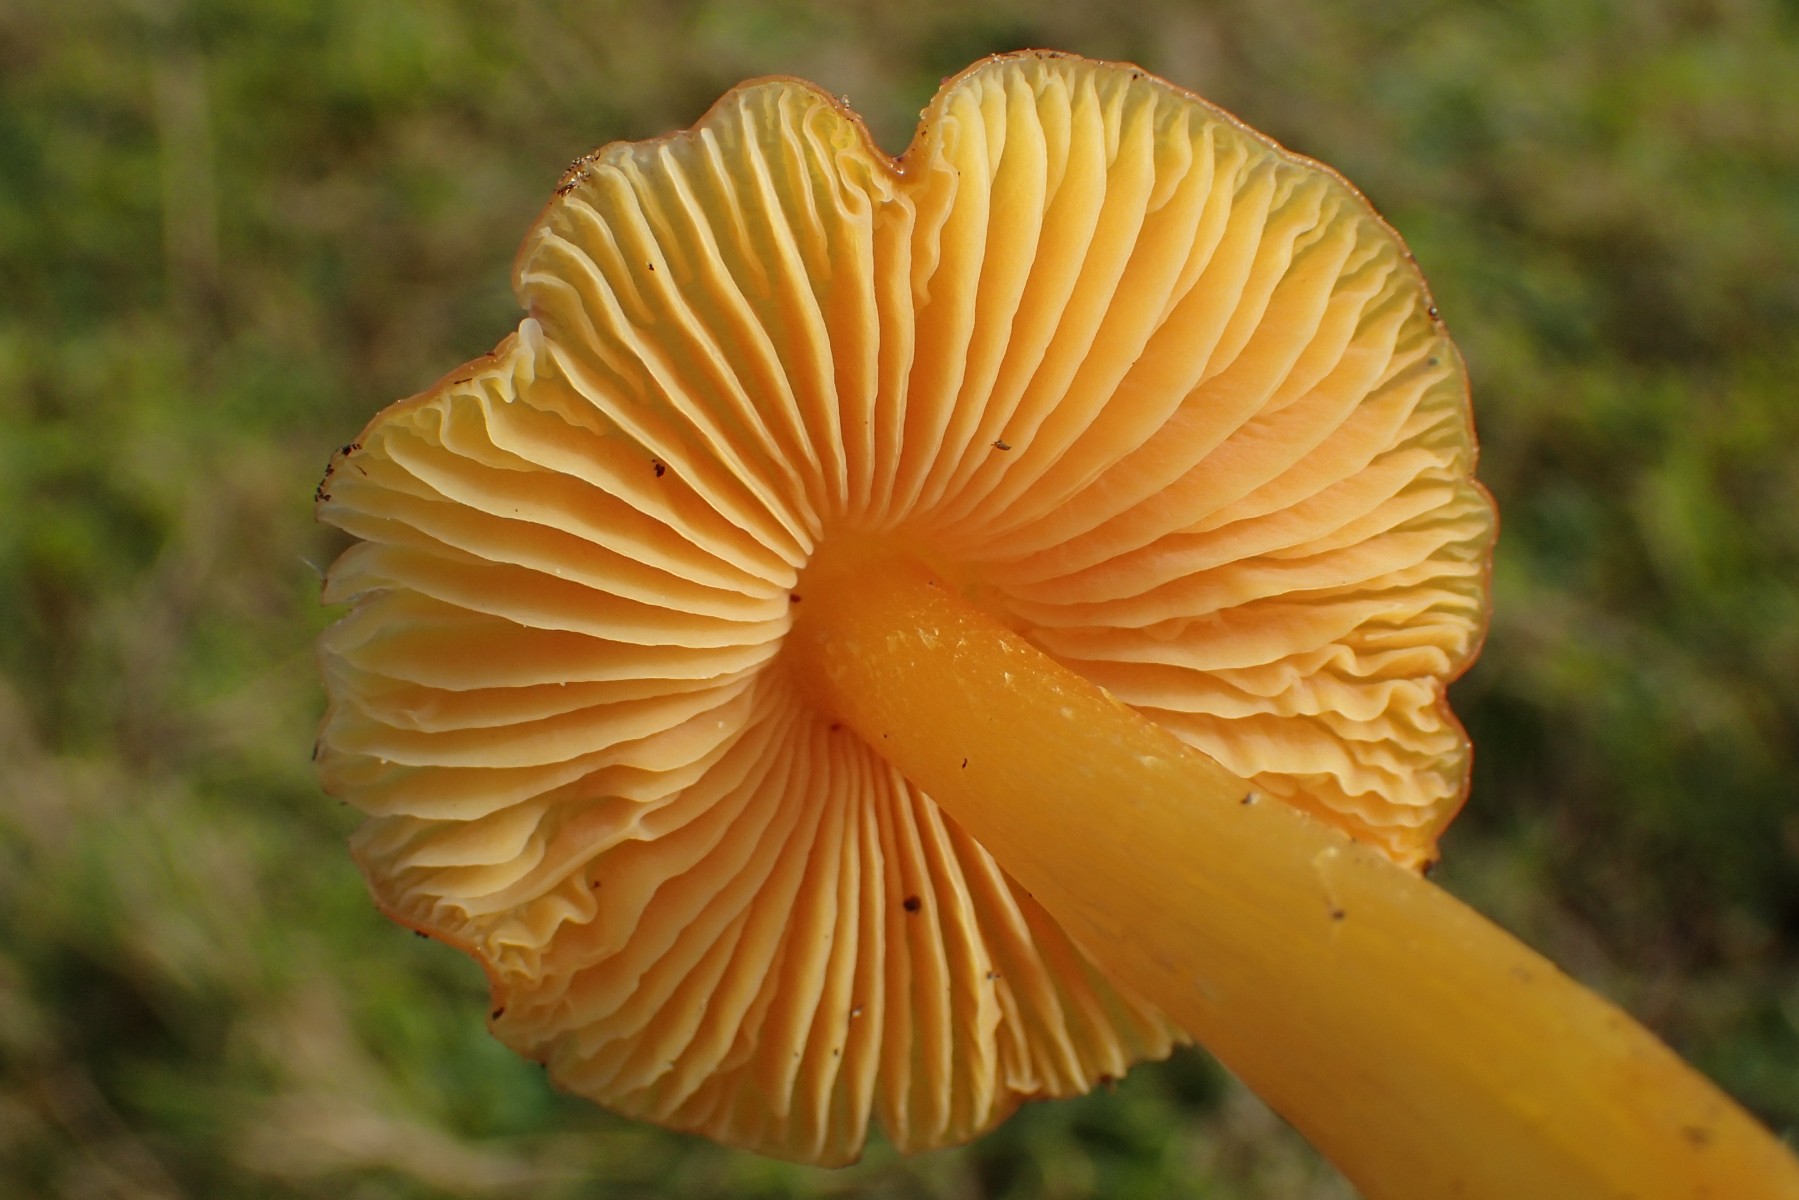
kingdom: Fungi
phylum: Basidiomycota
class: Agaricomycetes
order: Agaricales
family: Hygrophoraceae
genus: Hygrocybe
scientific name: Hygrocybe acutoconica
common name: spidspuklet vokshat
